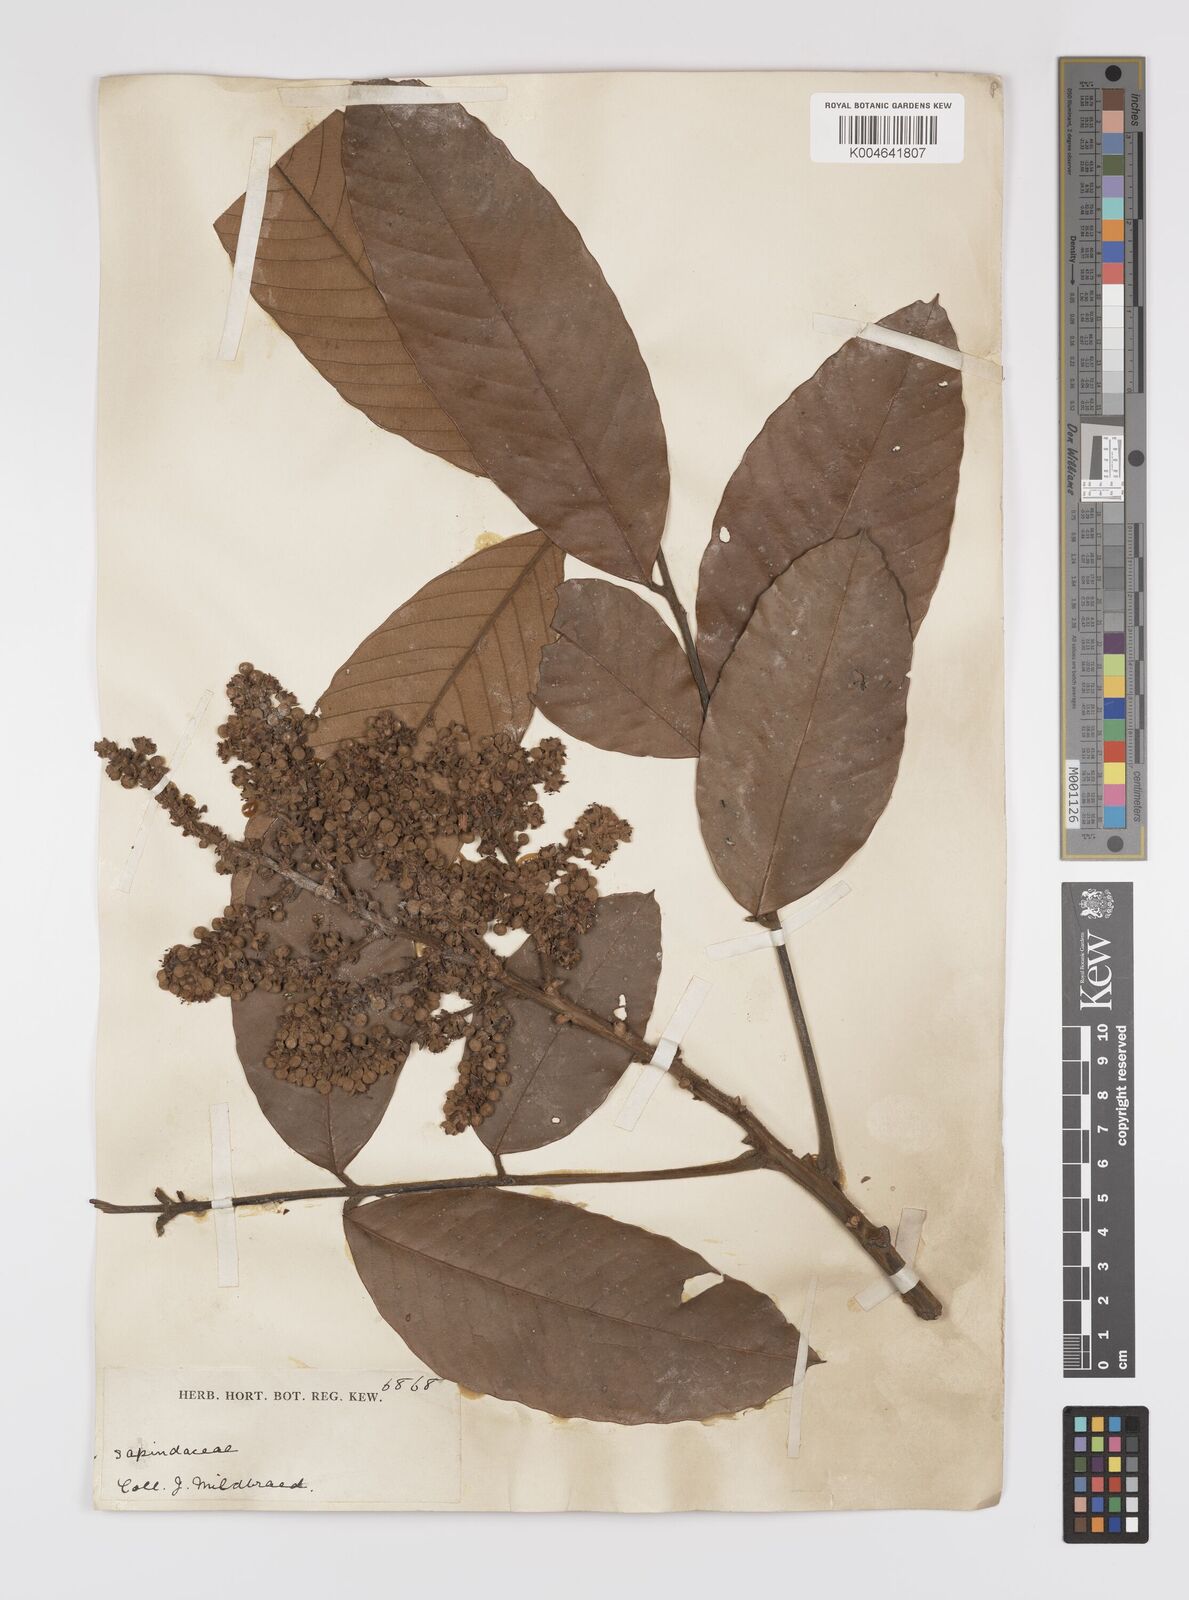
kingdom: Plantae
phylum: Tracheophyta
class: Magnoliopsida
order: Sapindales
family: Sapindaceae
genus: Lychnodiscus
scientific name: Lychnodiscus
